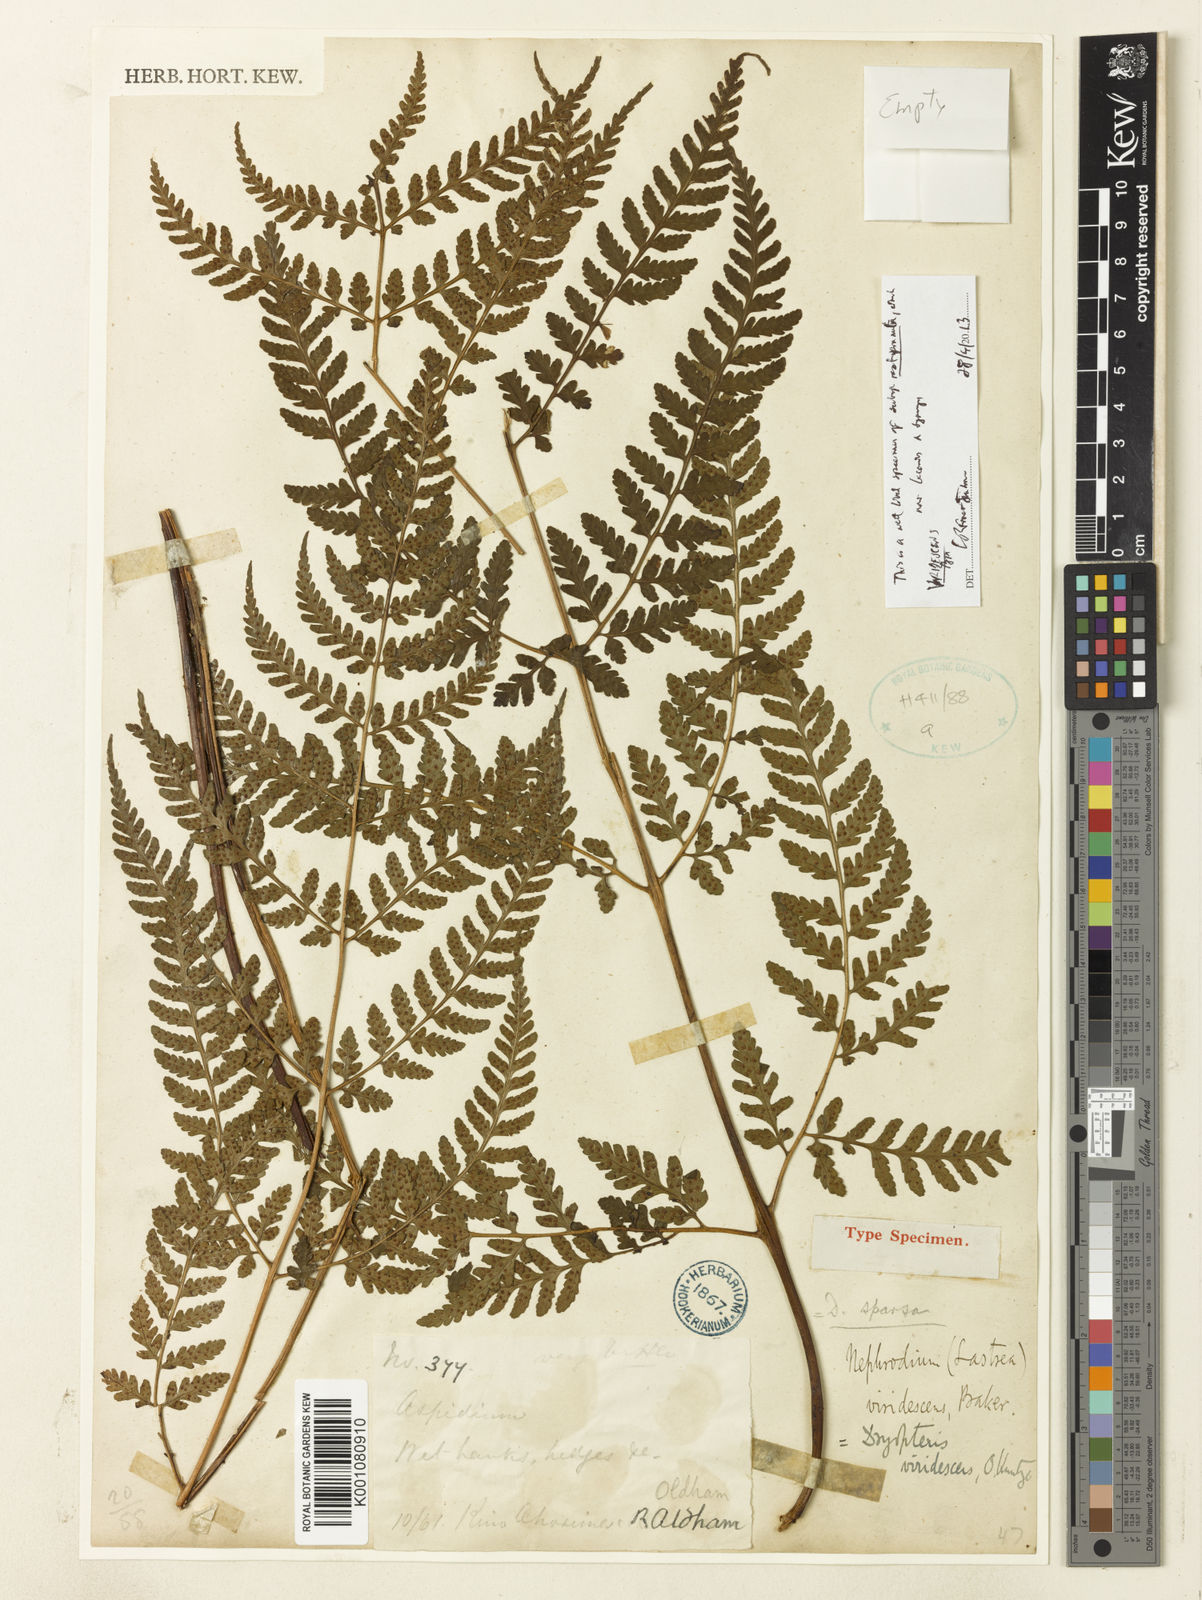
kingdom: Plantae
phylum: Tracheophyta
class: Polypodiopsida
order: Polypodiales
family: Dryopteridaceae
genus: Dryopteris
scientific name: Dryopteris sparsa
